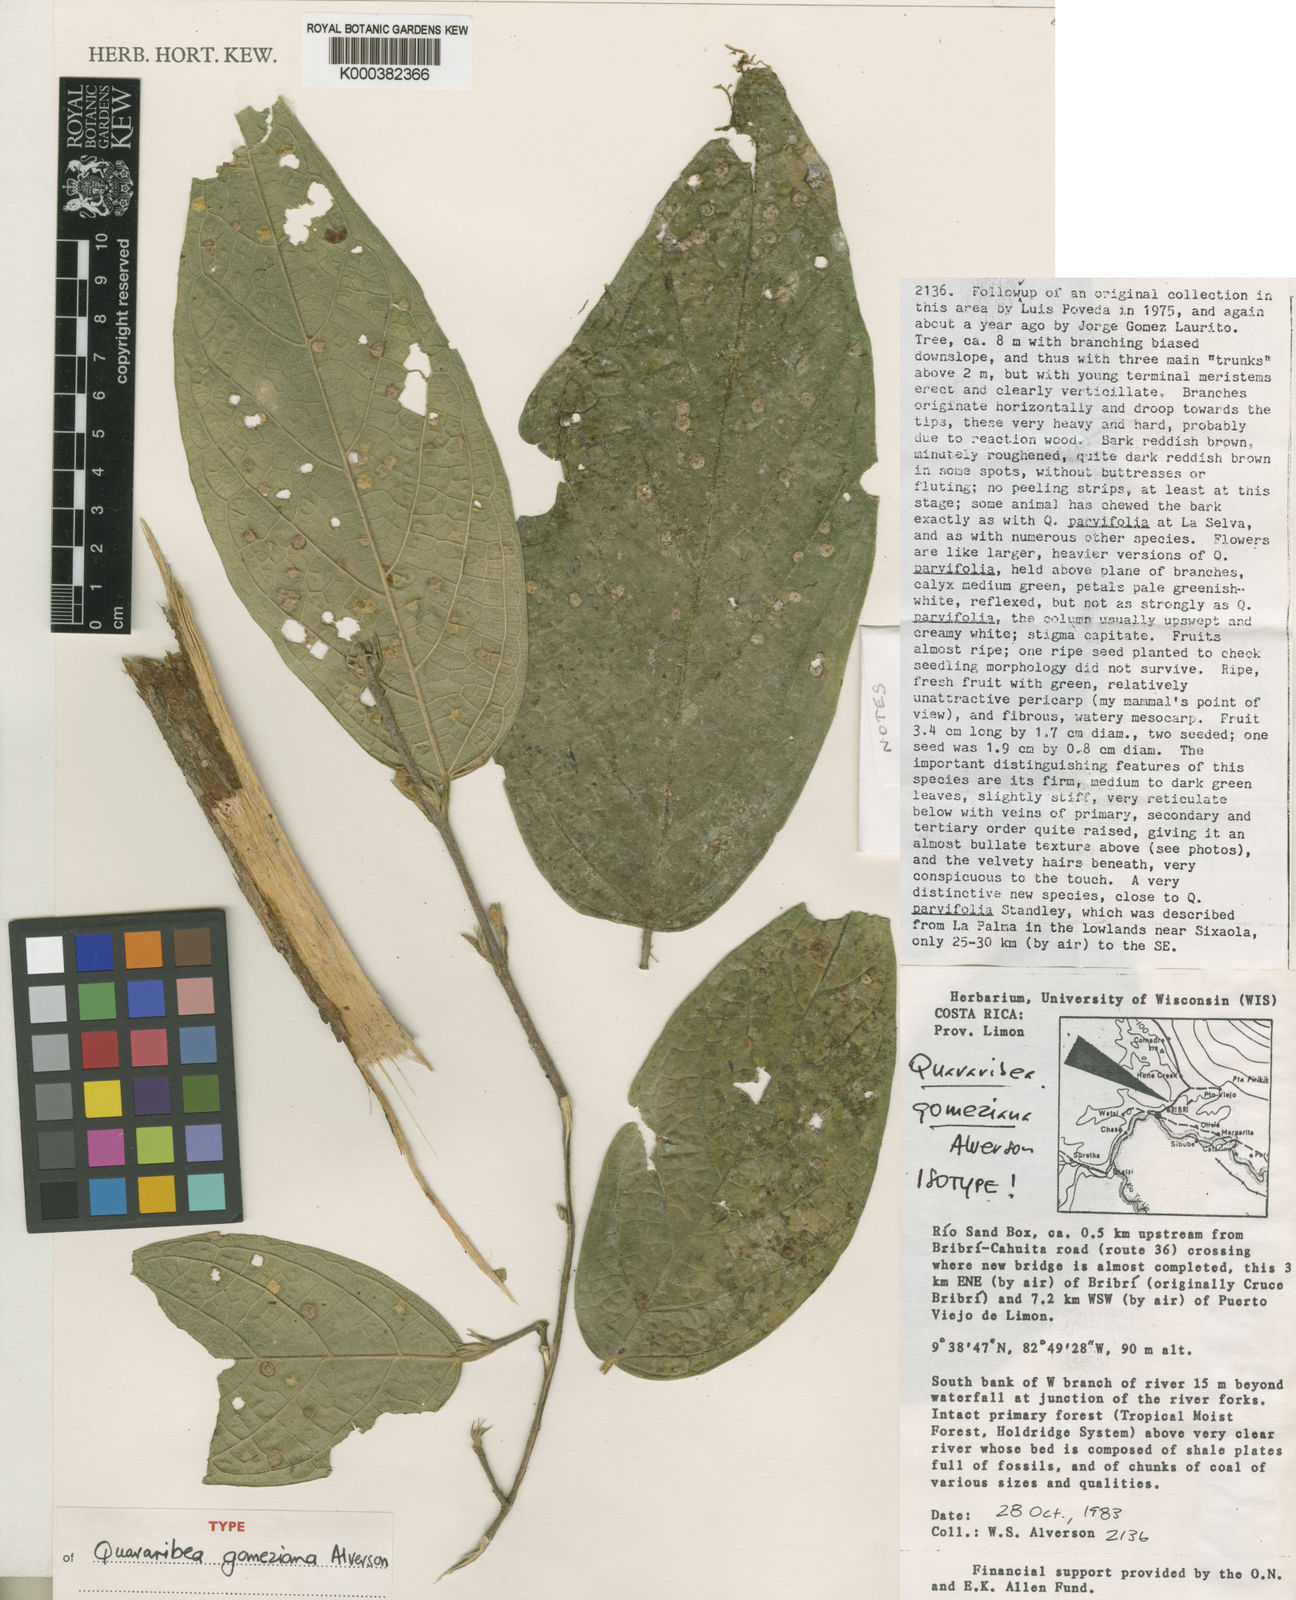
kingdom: Plantae
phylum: Tracheophyta
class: Magnoliopsida
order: Malvales
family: Malvaceae
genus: Quararibea
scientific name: Quararibea gomeziana
